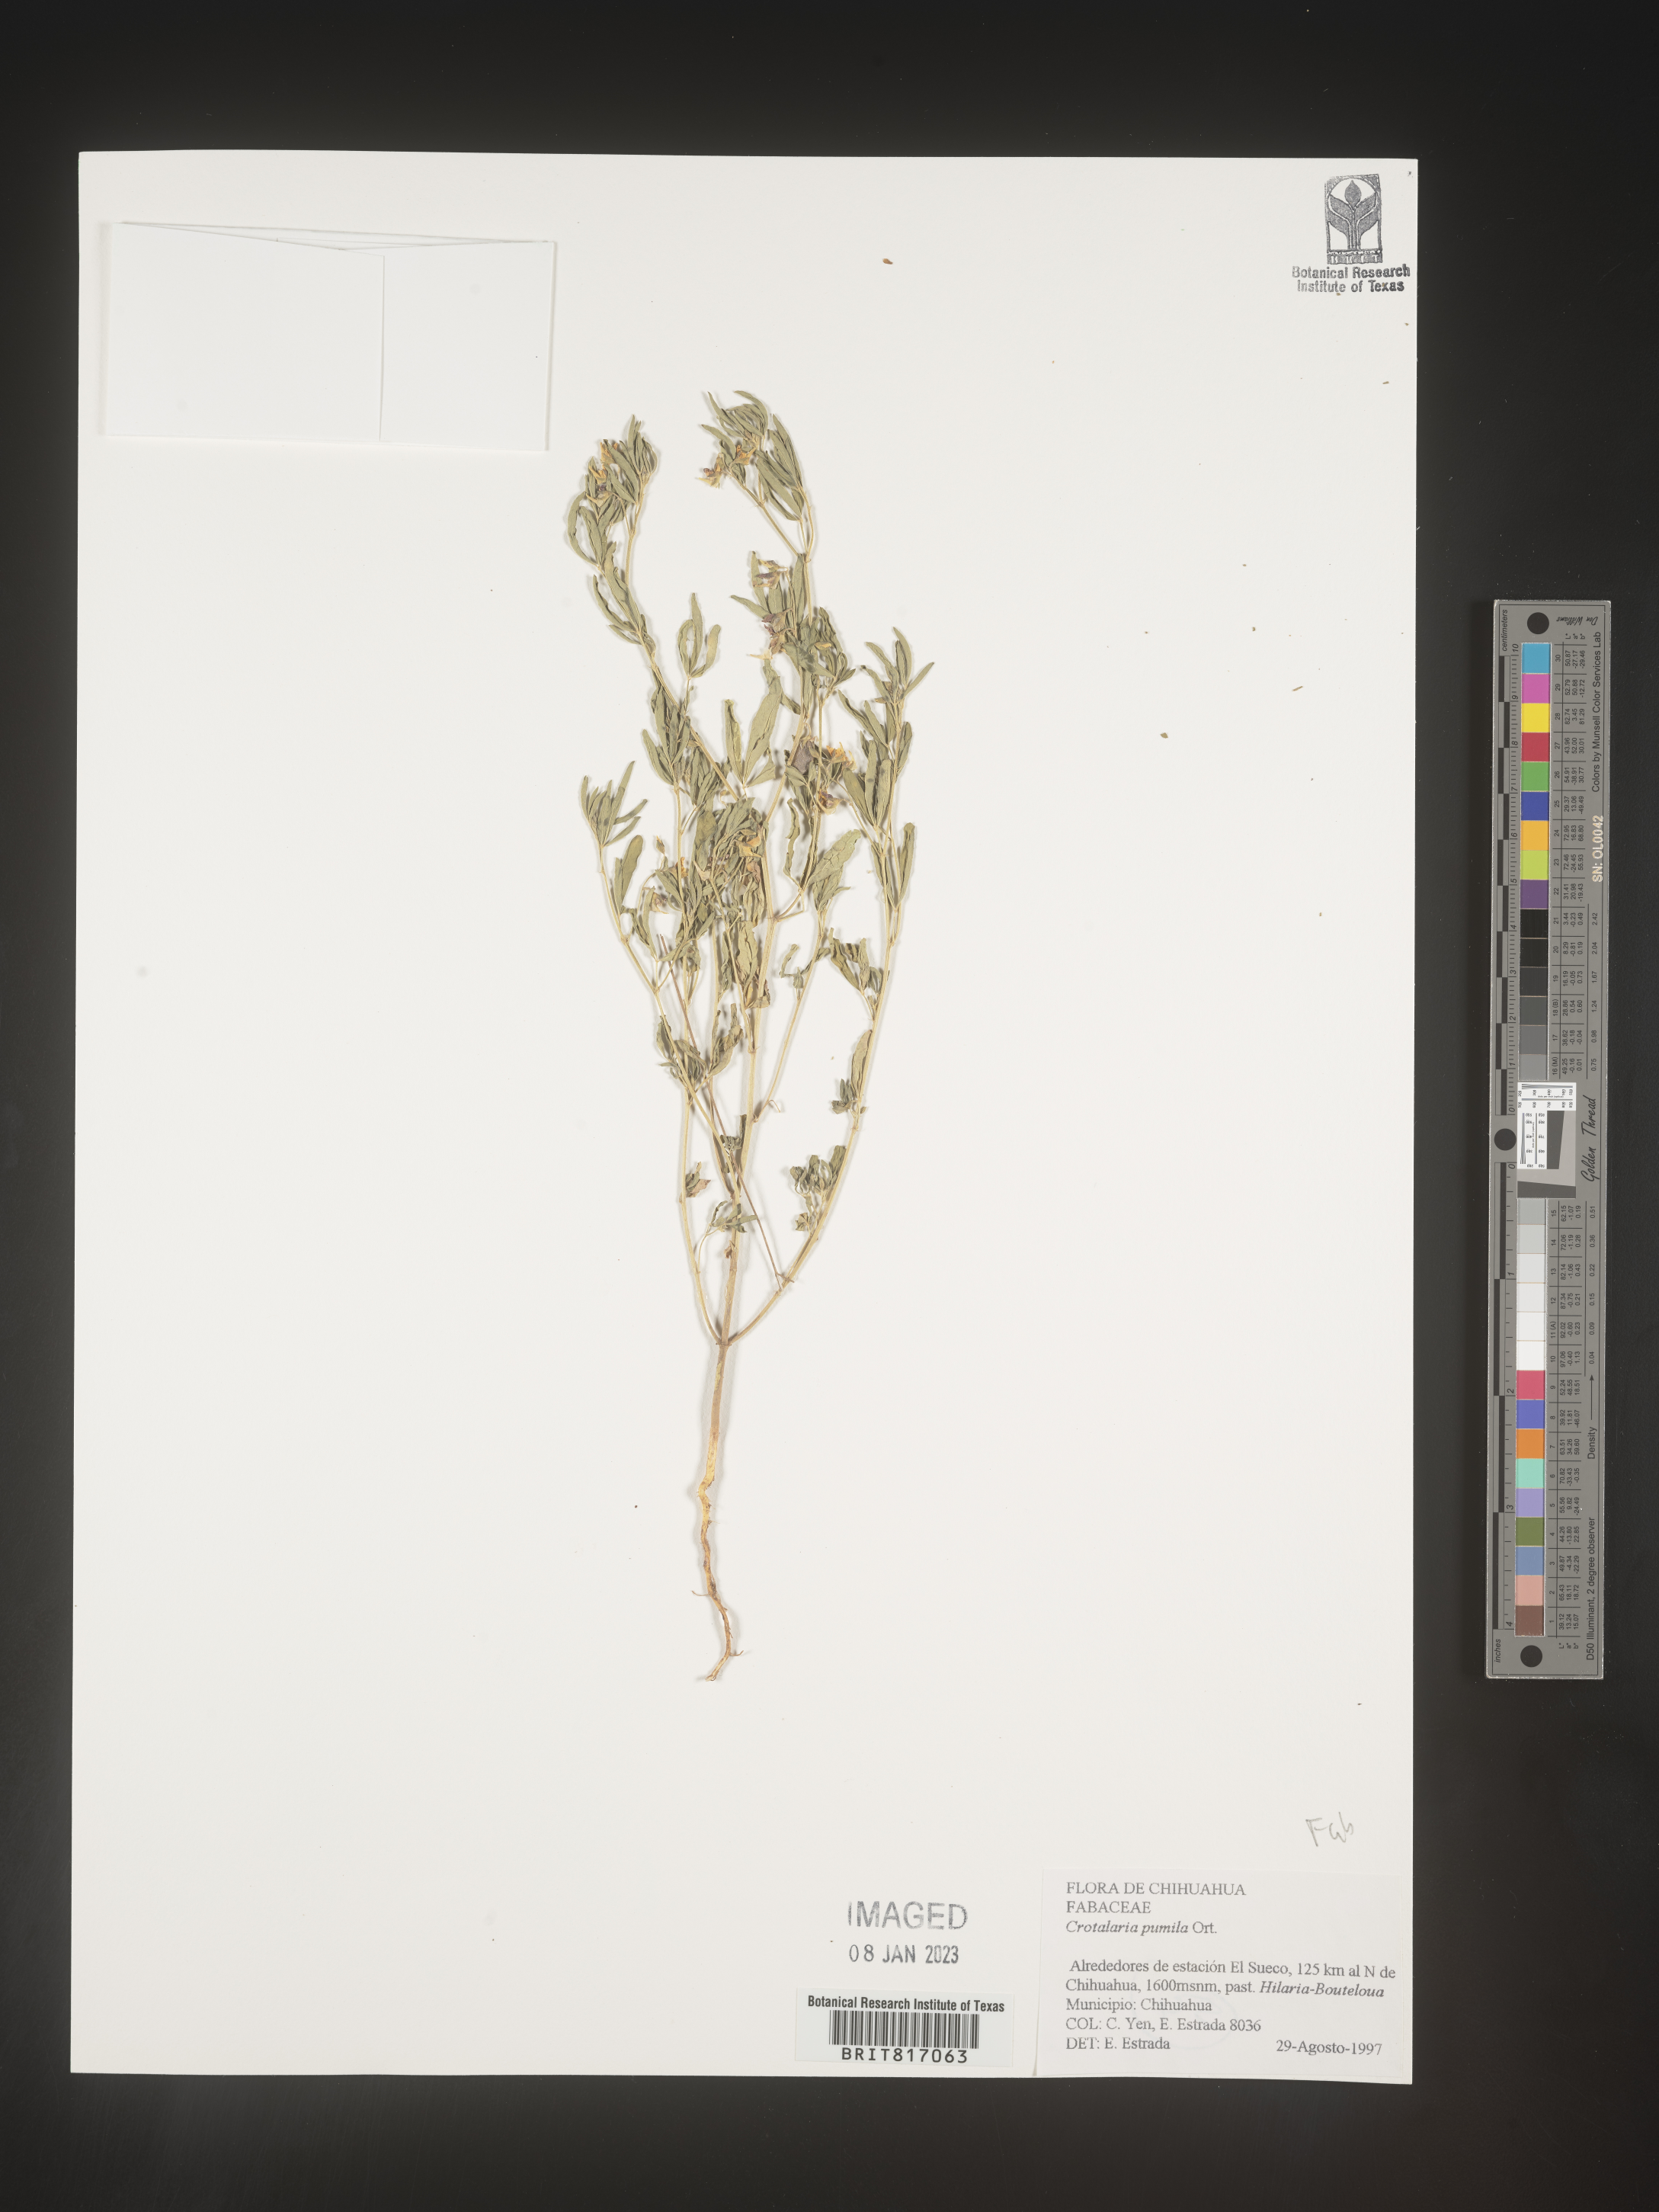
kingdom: Plantae
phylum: Tracheophyta
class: Magnoliopsida
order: Fabales
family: Fabaceae
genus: Crotalaria
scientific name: Crotalaria
